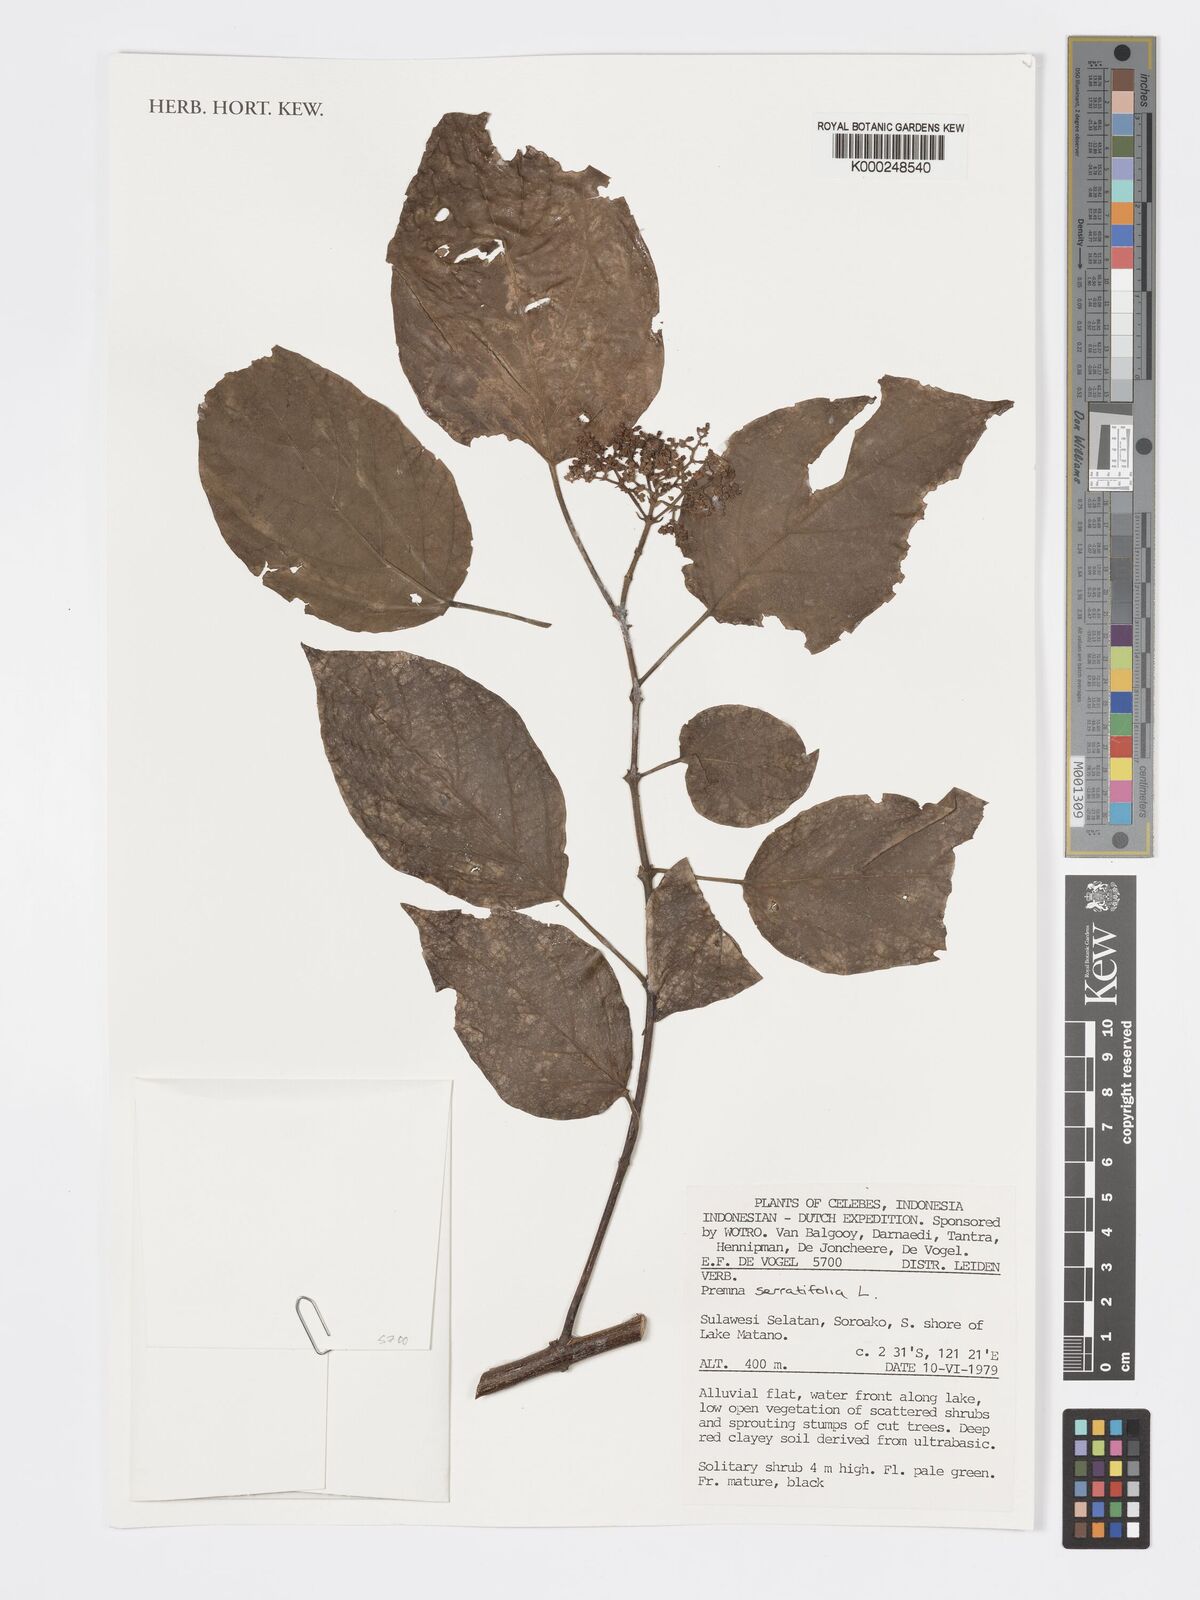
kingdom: Plantae
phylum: Tracheophyta
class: Magnoliopsida
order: Lamiales
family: Lamiaceae
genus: Premna
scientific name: Premna serratifolia
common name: Bastard guelder
